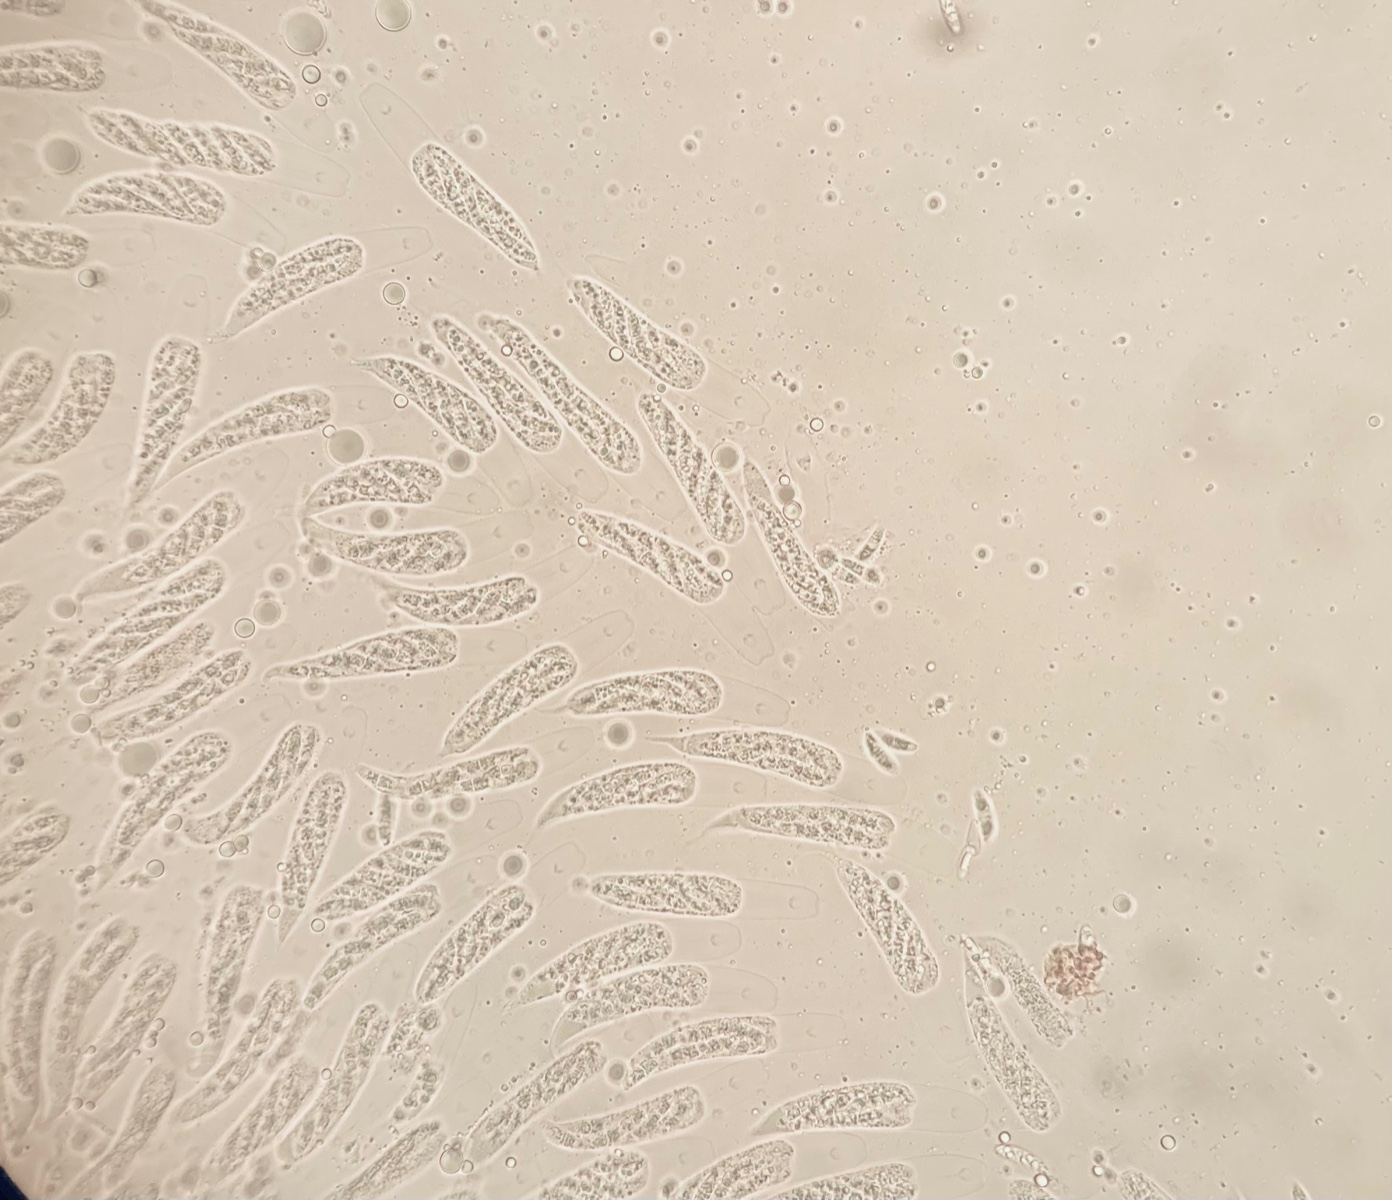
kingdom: Fungi
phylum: Ascomycota
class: Sordariomycetes
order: Calosphaeriales
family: Calosphaeriaceae
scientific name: Calosphaeriaceae
